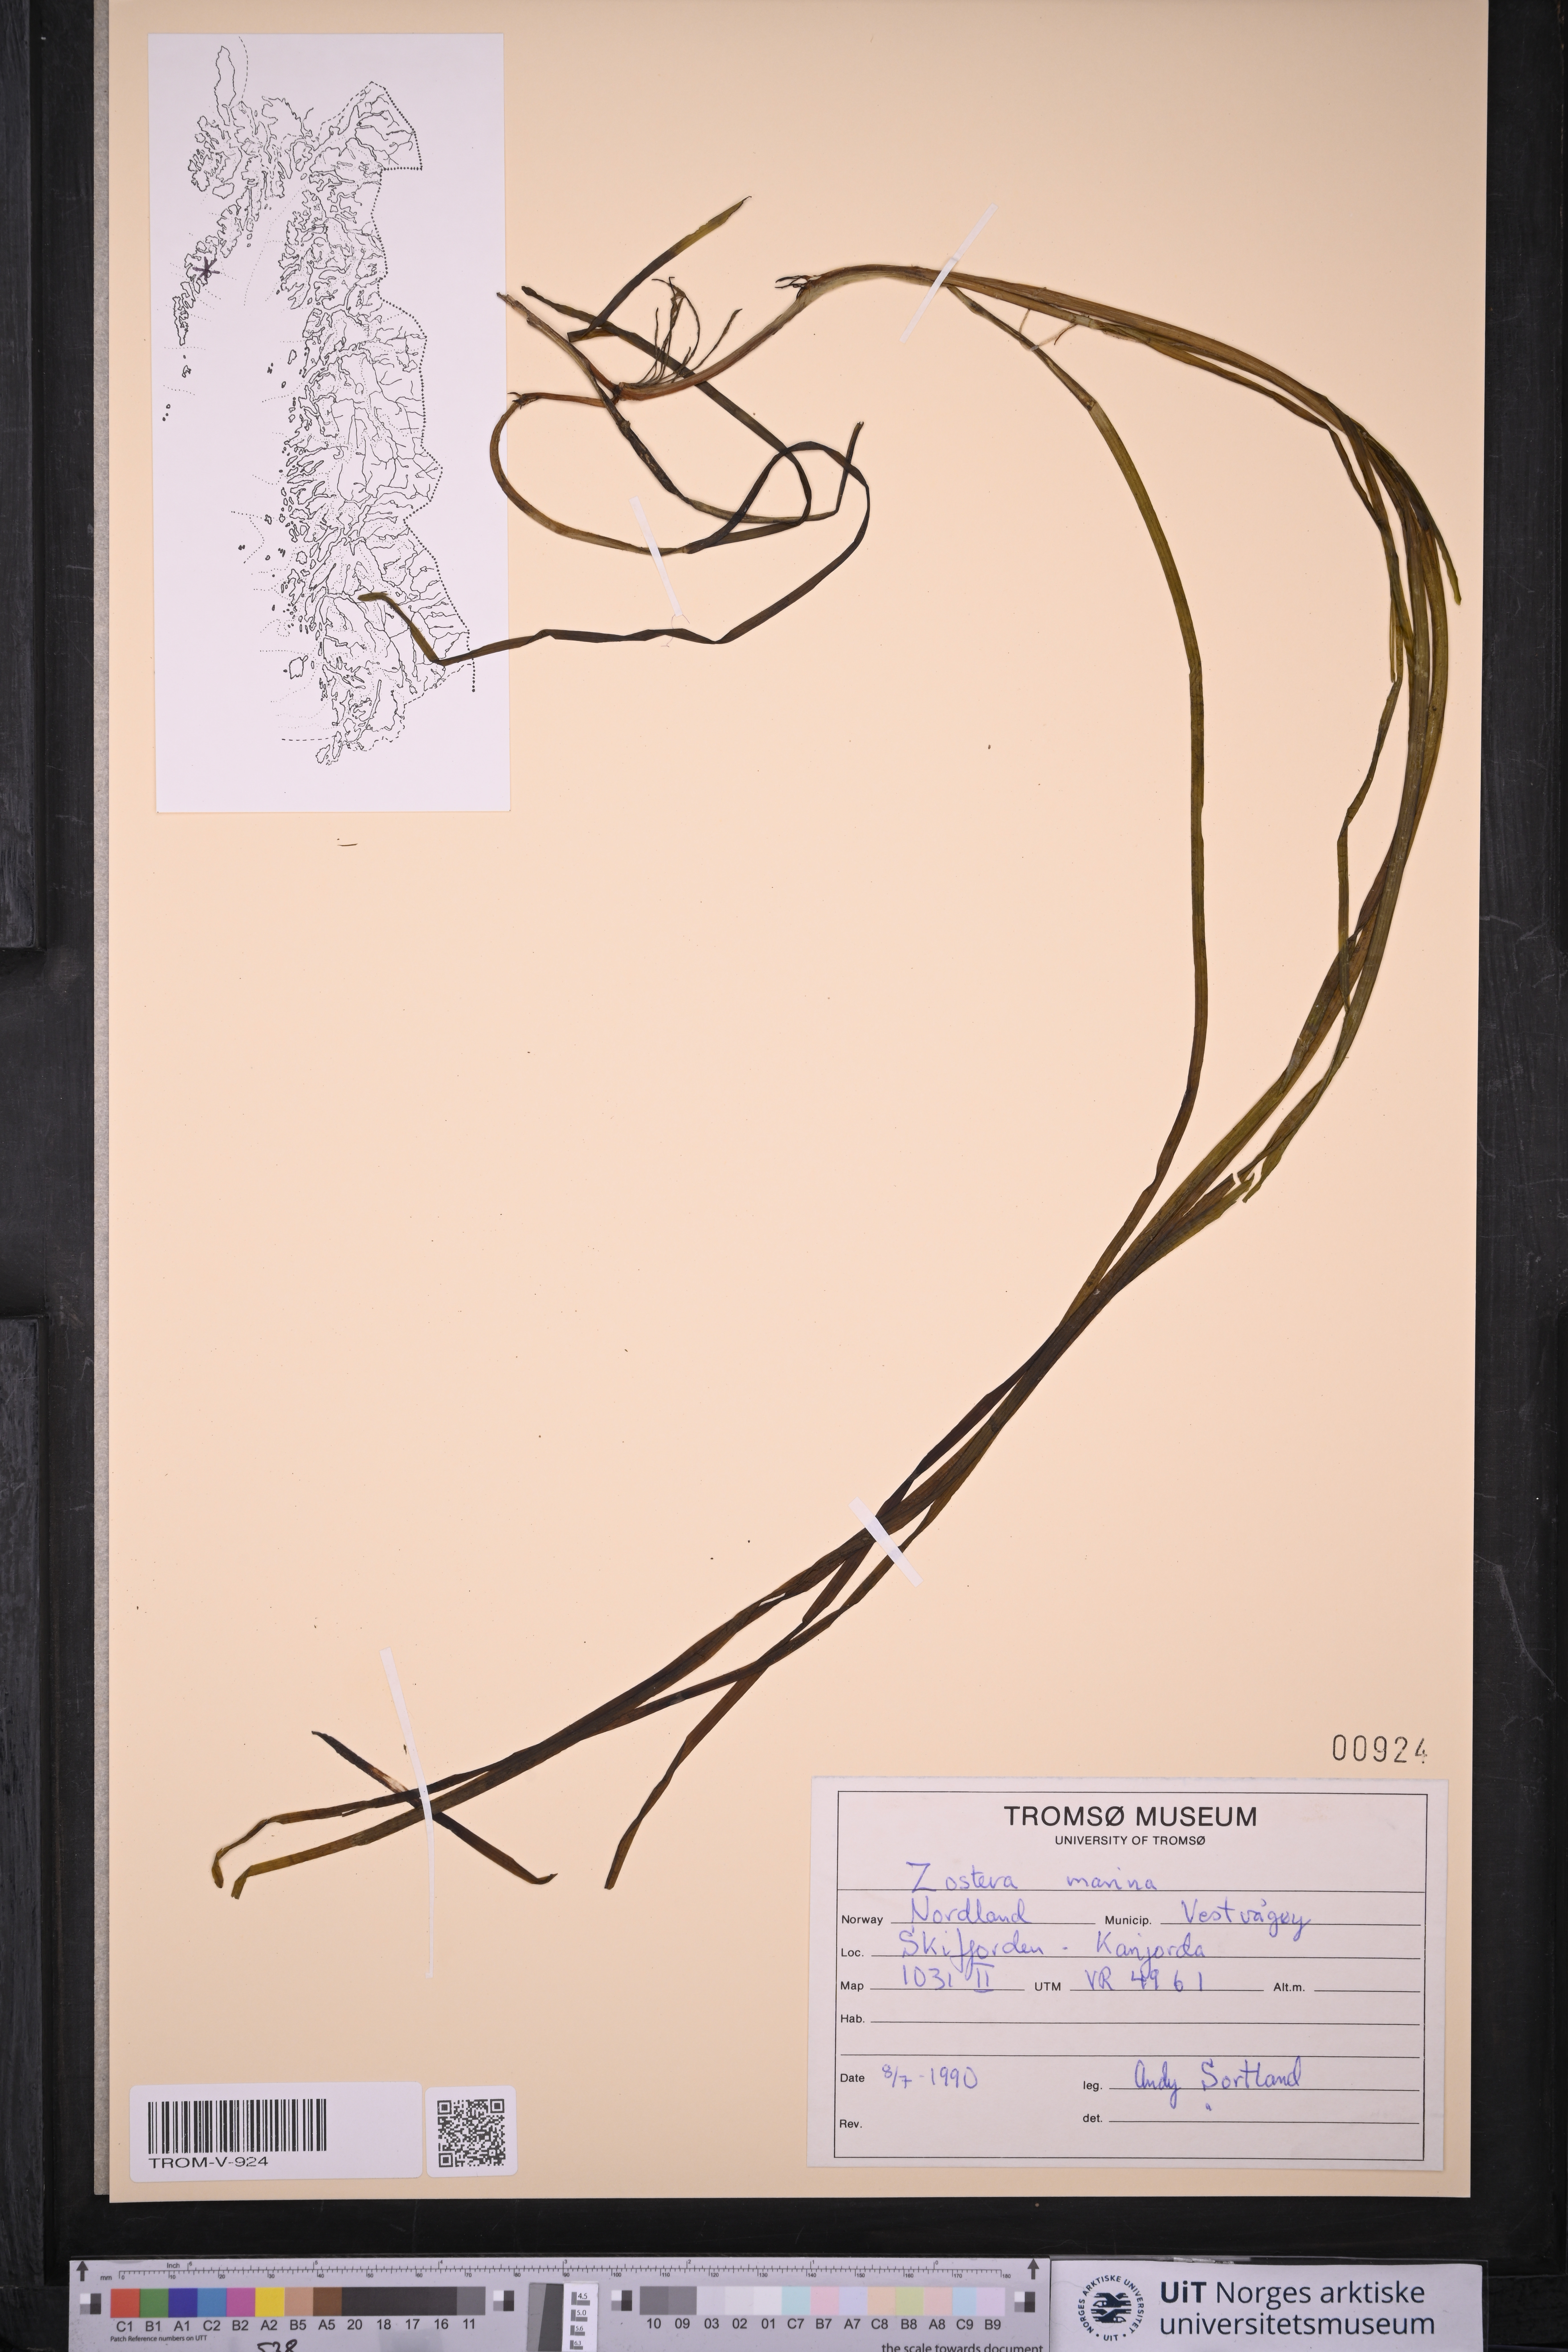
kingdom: Plantae
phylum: Tracheophyta
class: Liliopsida
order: Alismatales
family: Zosteraceae
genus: Zostera
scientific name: Zostera marina
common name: Eelgrass
